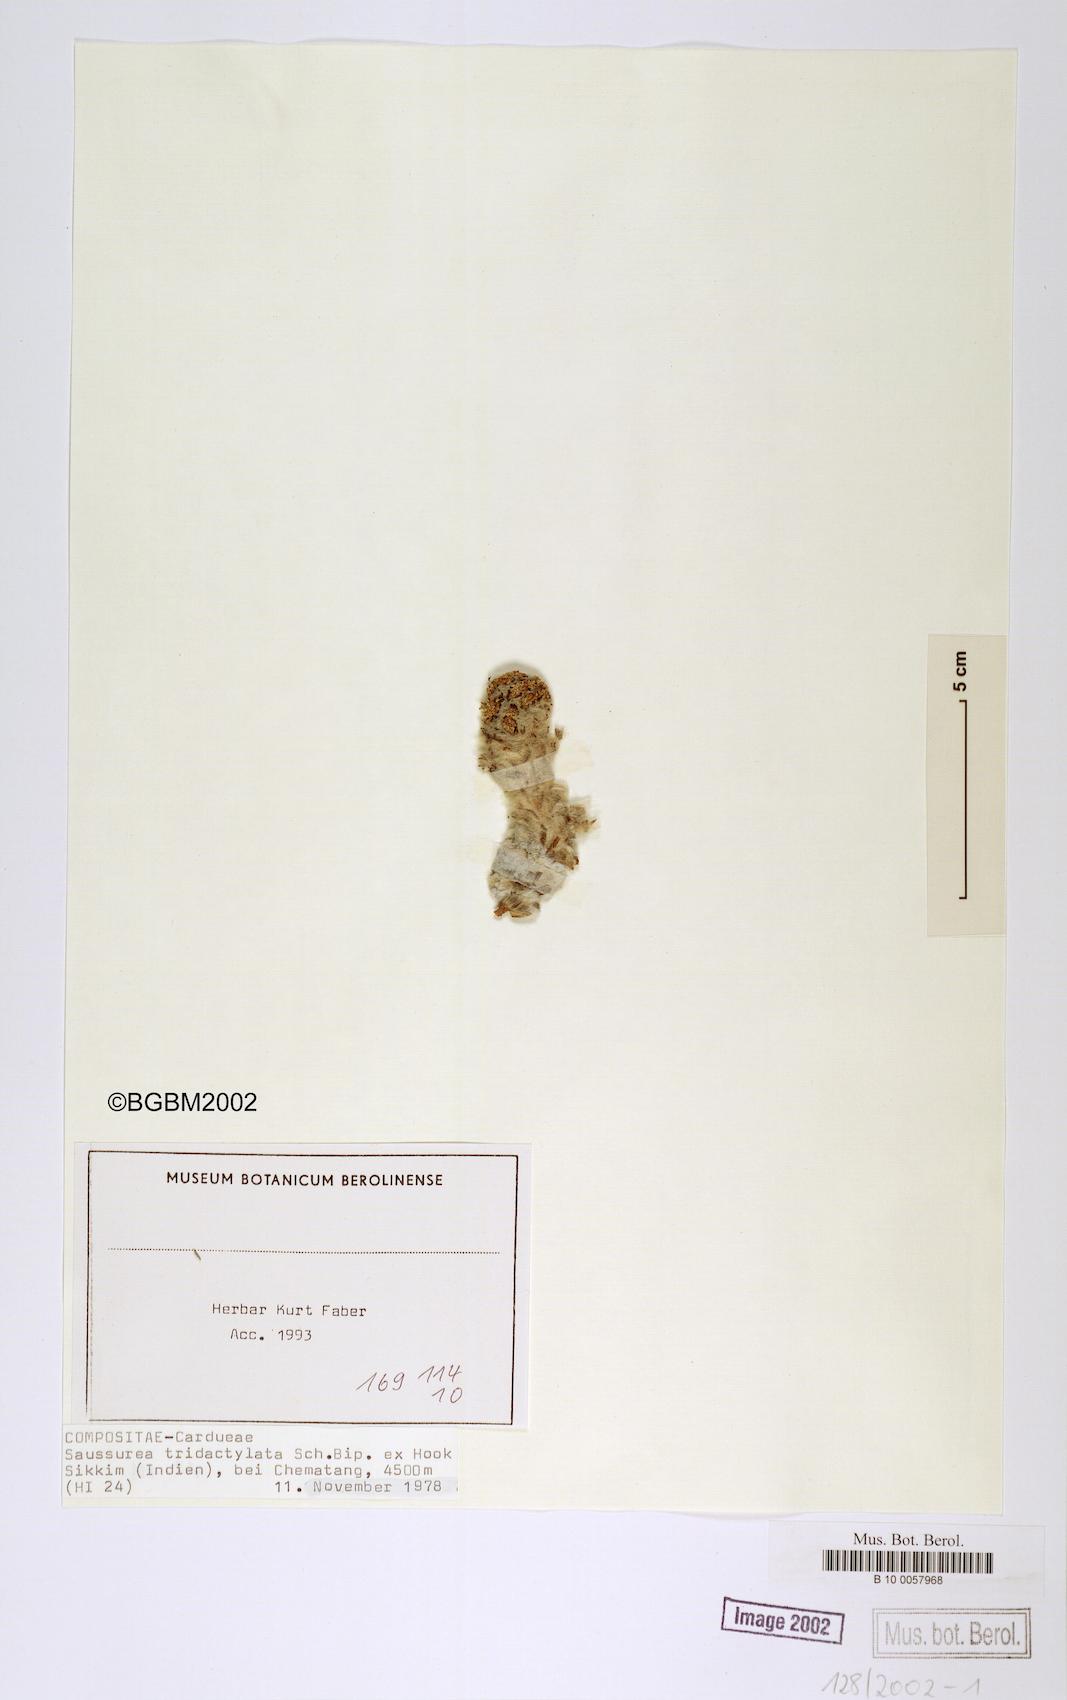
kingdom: Plantae
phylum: Tracheophyta
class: Magnoliopsida
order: Asterales
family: Asteraceae
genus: Saussurea
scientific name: Saussurea tridactyla
